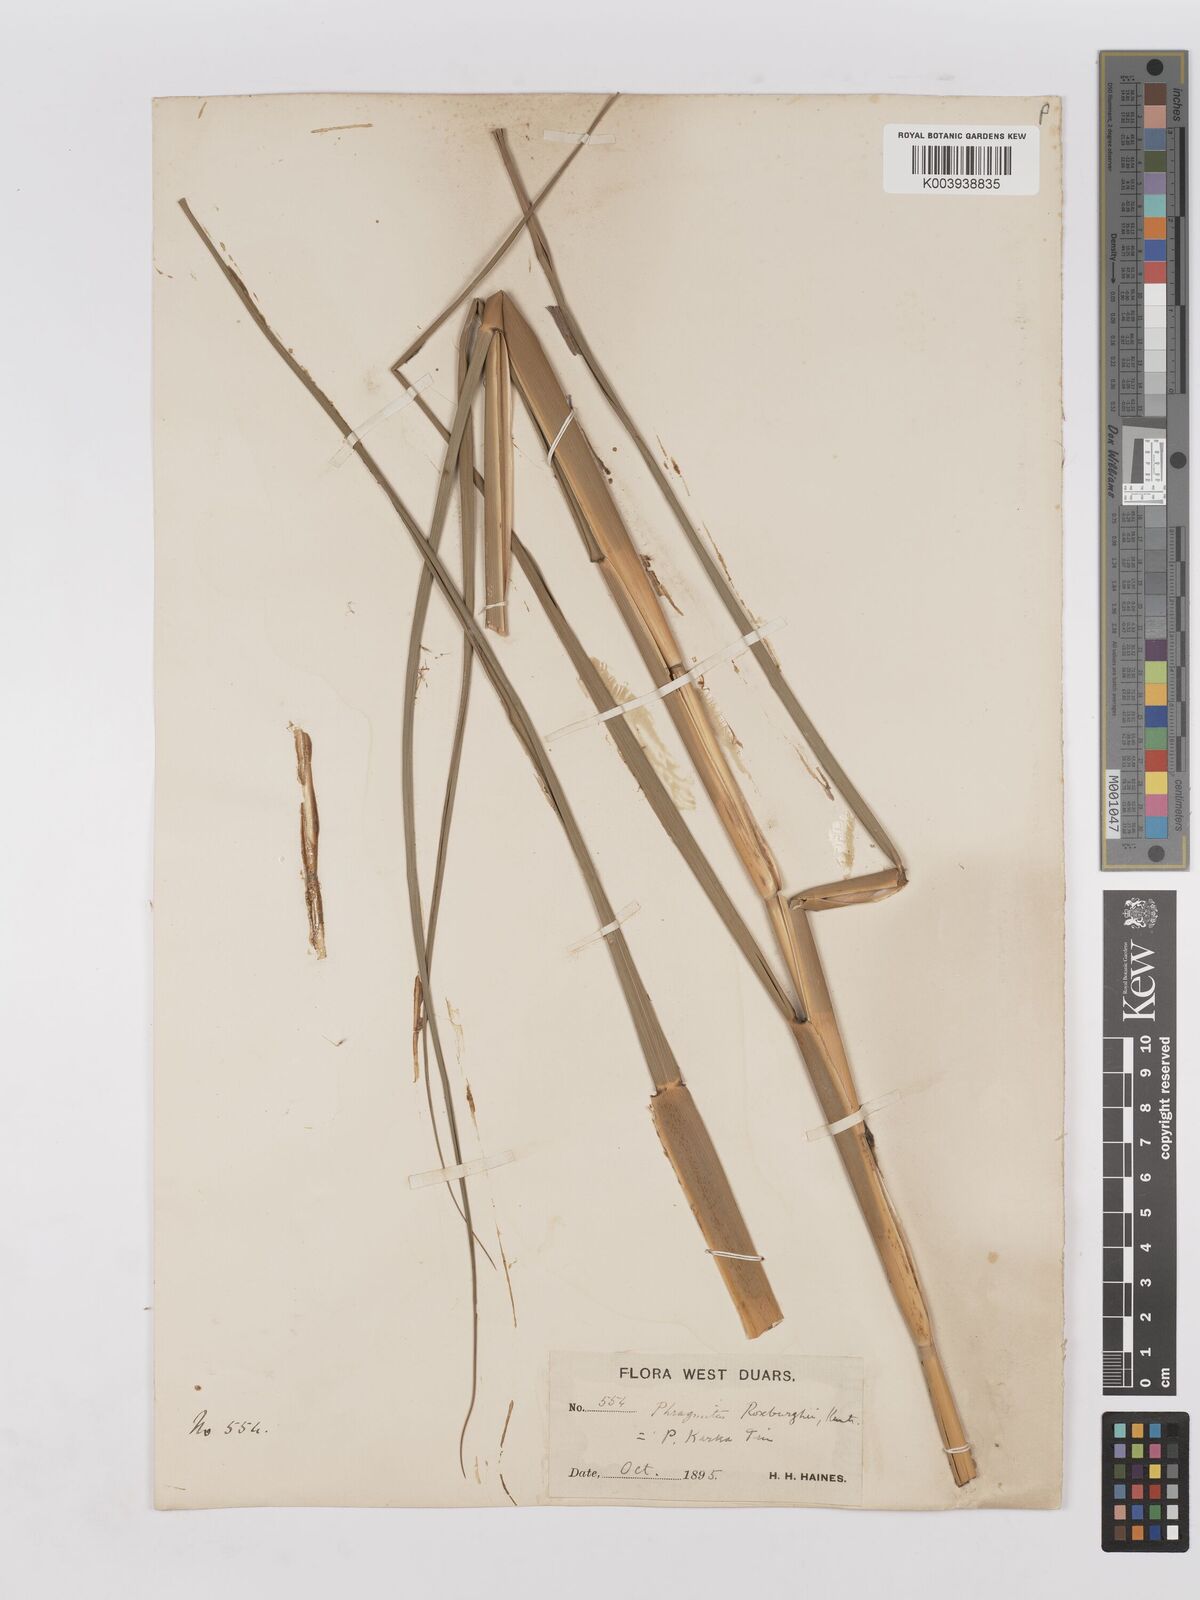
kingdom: Plantae
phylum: Tracheophyta
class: Liliopsida
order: Poales
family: Poaceae
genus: Phragmites
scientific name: Phragmites karka
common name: Tropical reed
